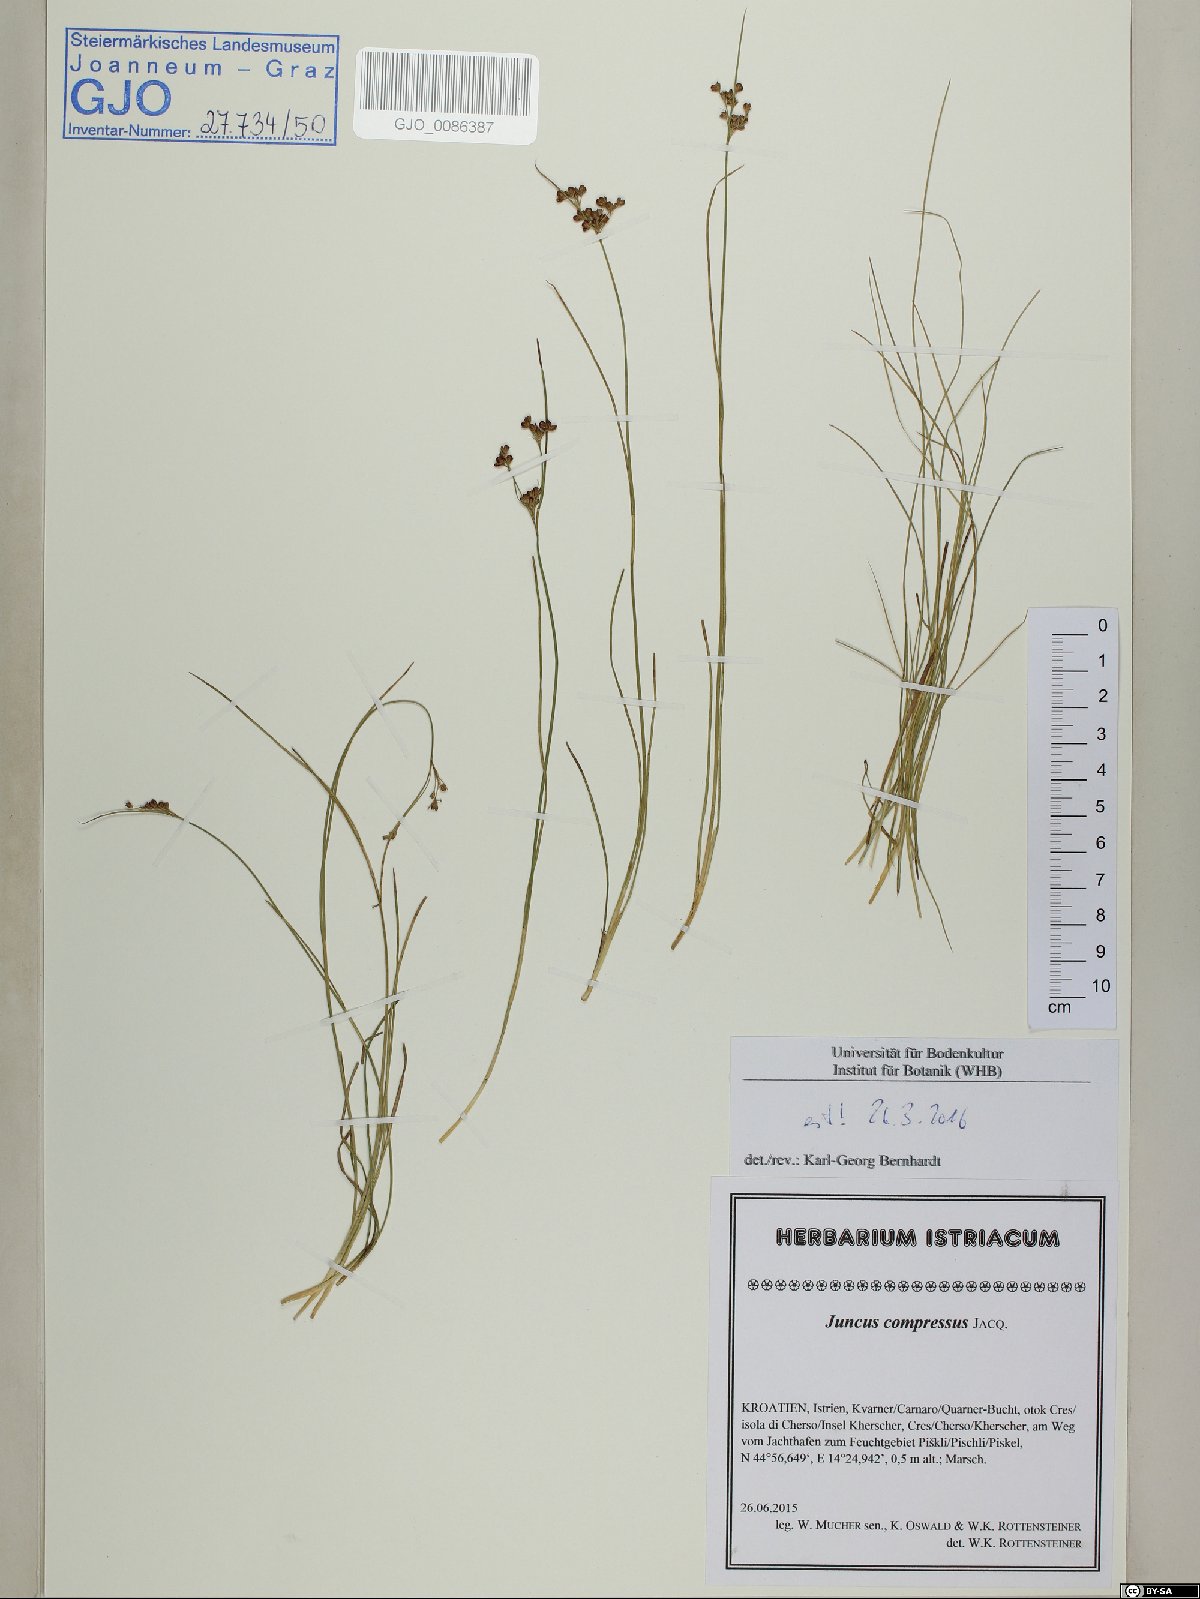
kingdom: Plantae
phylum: Tracheophyta
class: Liliopsida
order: Poales
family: Juncaceae
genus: Juncus
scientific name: Juncus compressus
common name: Round-fruited rush
